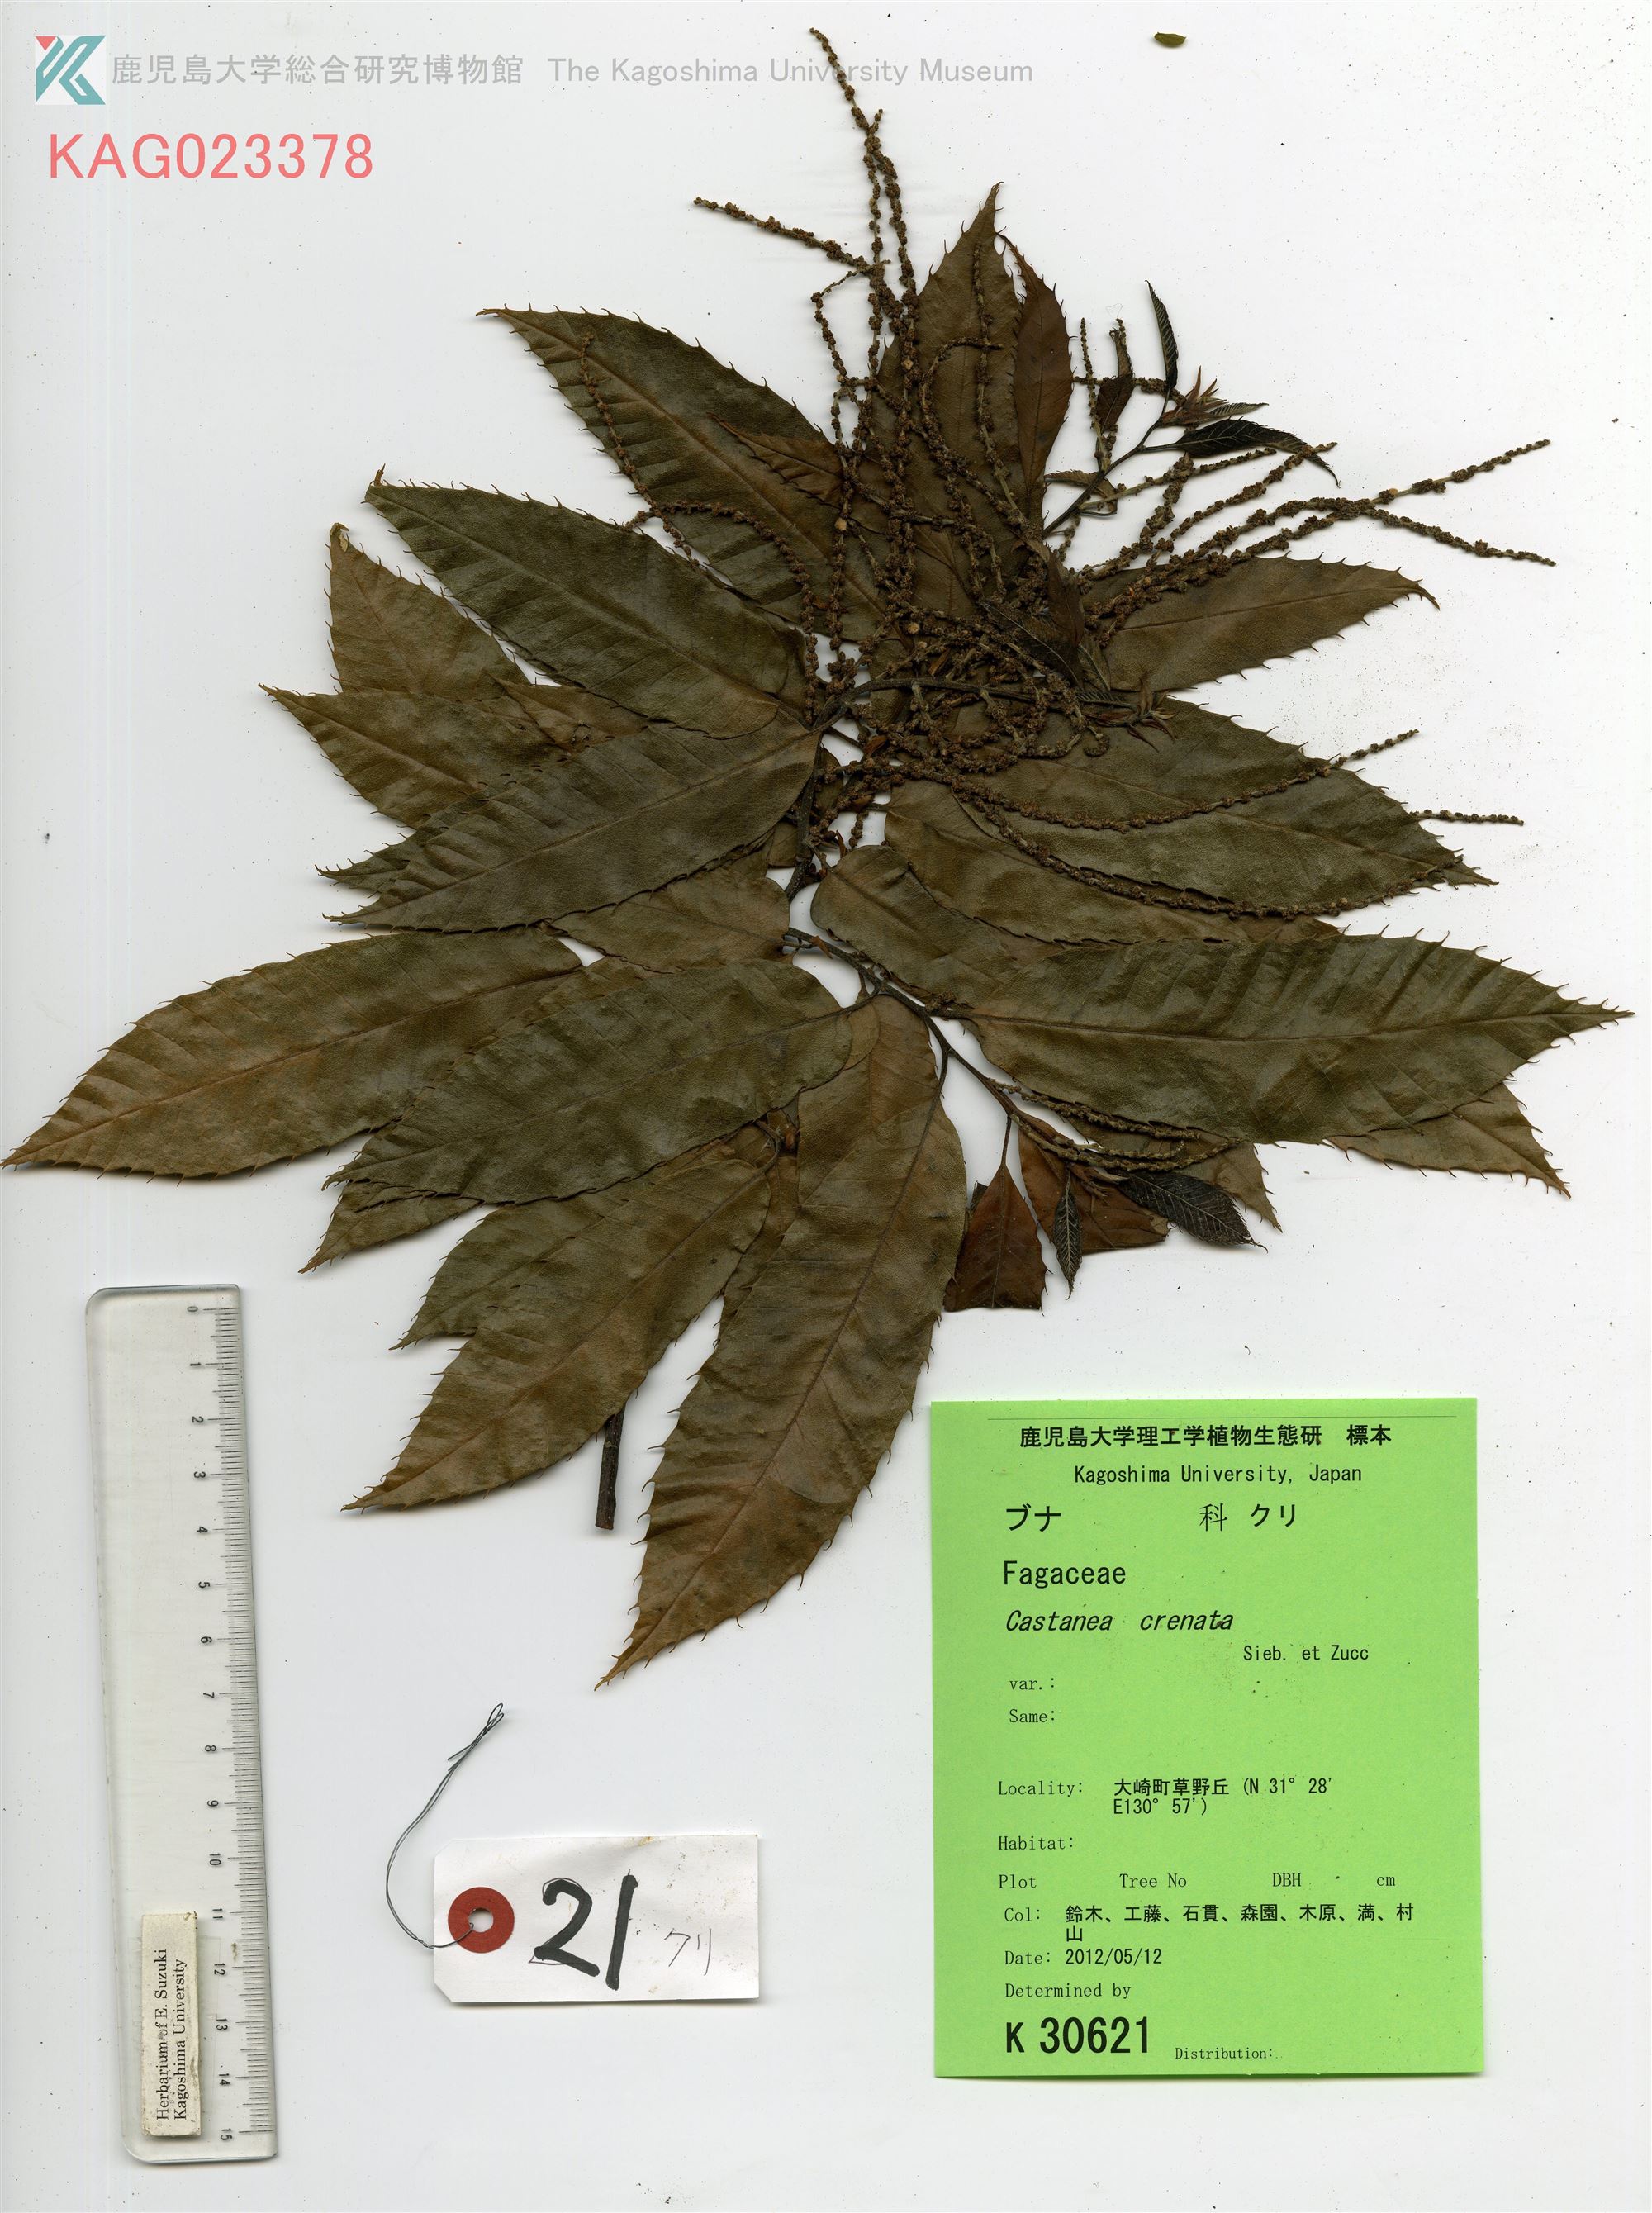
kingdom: Plantae
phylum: Tracheophyta
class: Magnoliopsida
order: Fagales
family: Fagaceae
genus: Castanea
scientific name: Castanea crenata
